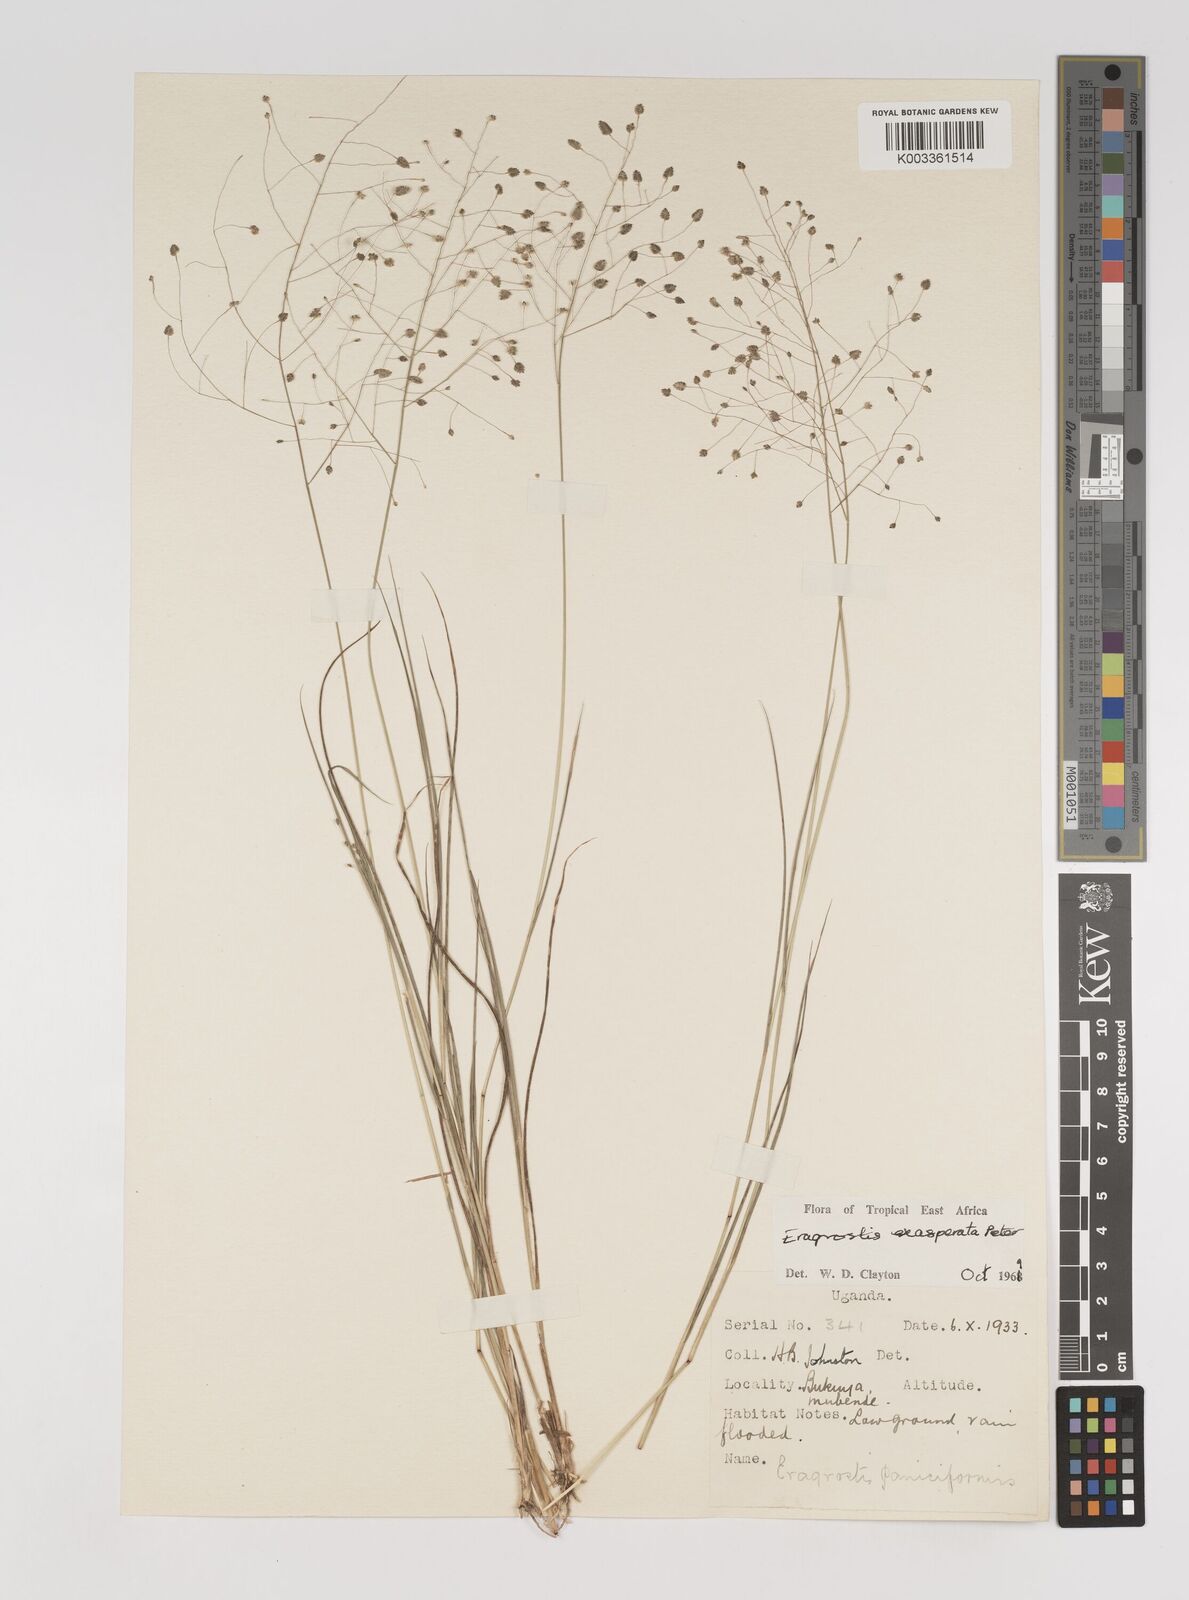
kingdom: Plantae
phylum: Tracheophyta
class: Liliopsida
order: Poales
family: Poaceae
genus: Eragrostis
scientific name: Eragrostis exasperata
